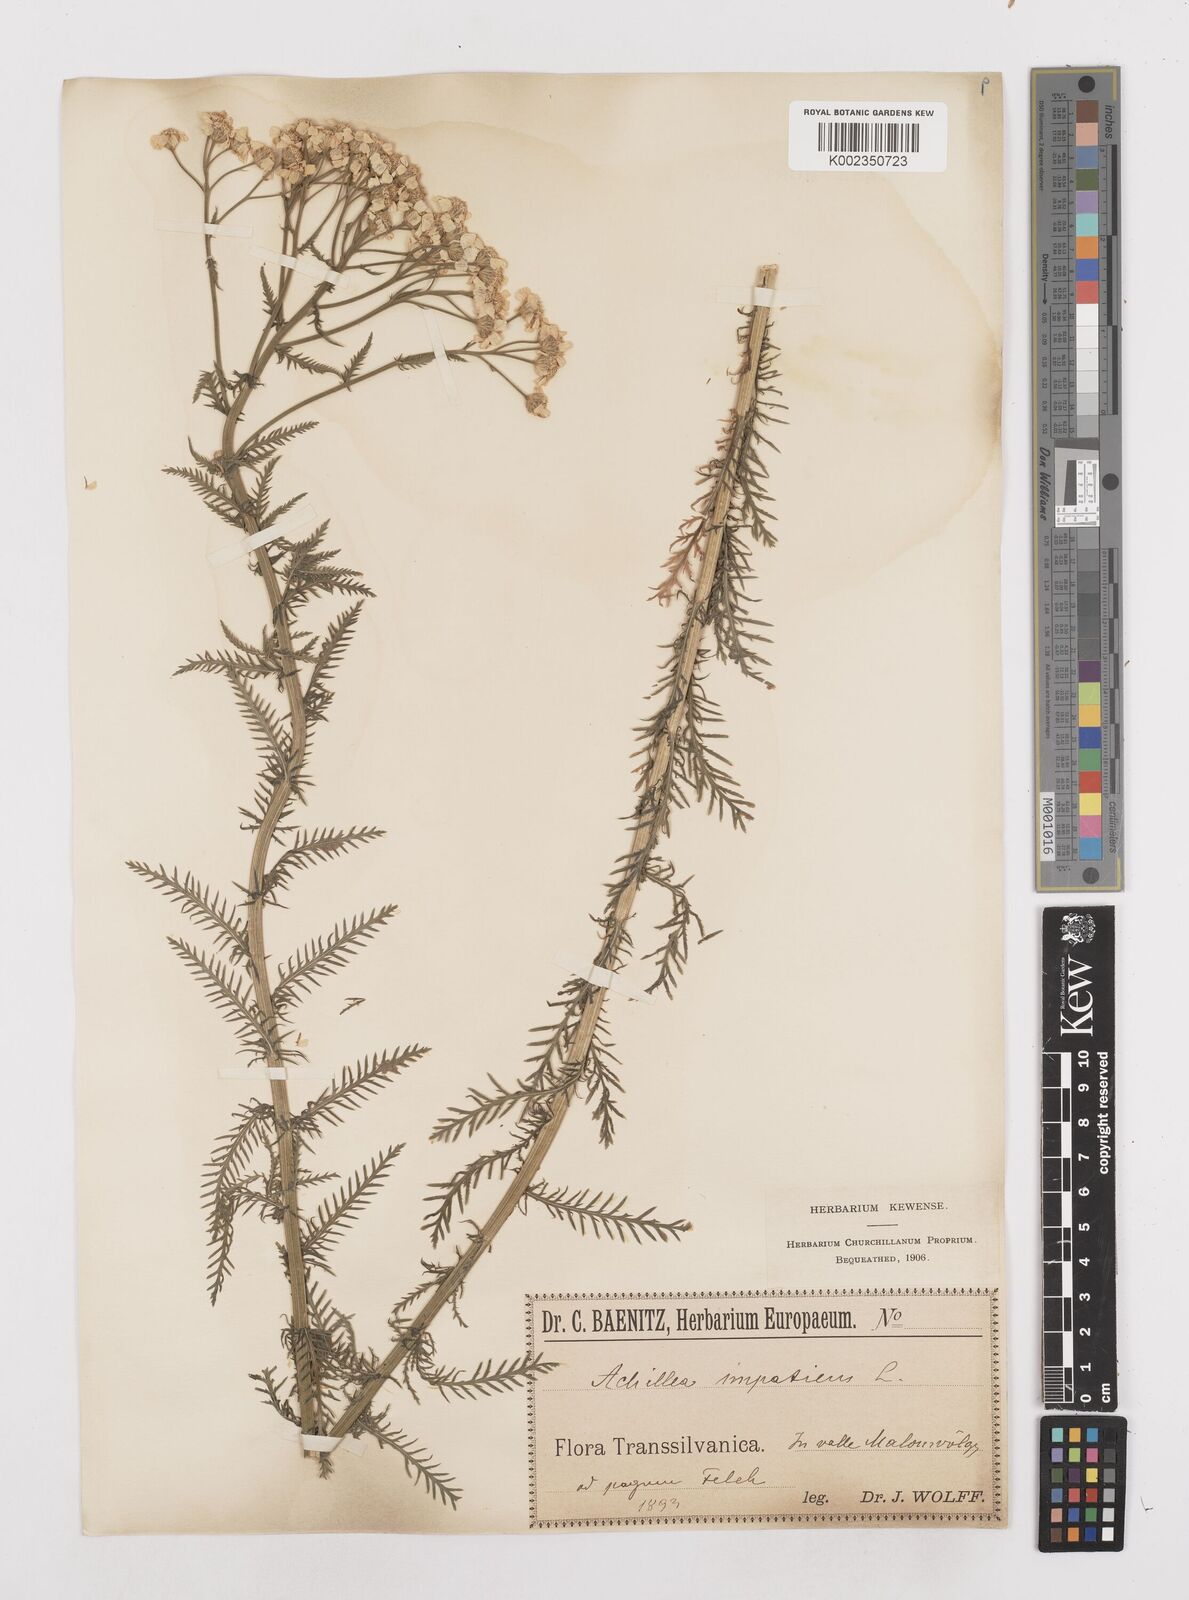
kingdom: Plantae
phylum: Tracheophyta
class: Magnoliopsida
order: Asterales
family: Asteraceae
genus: Achillea
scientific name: Achillea impatiens
